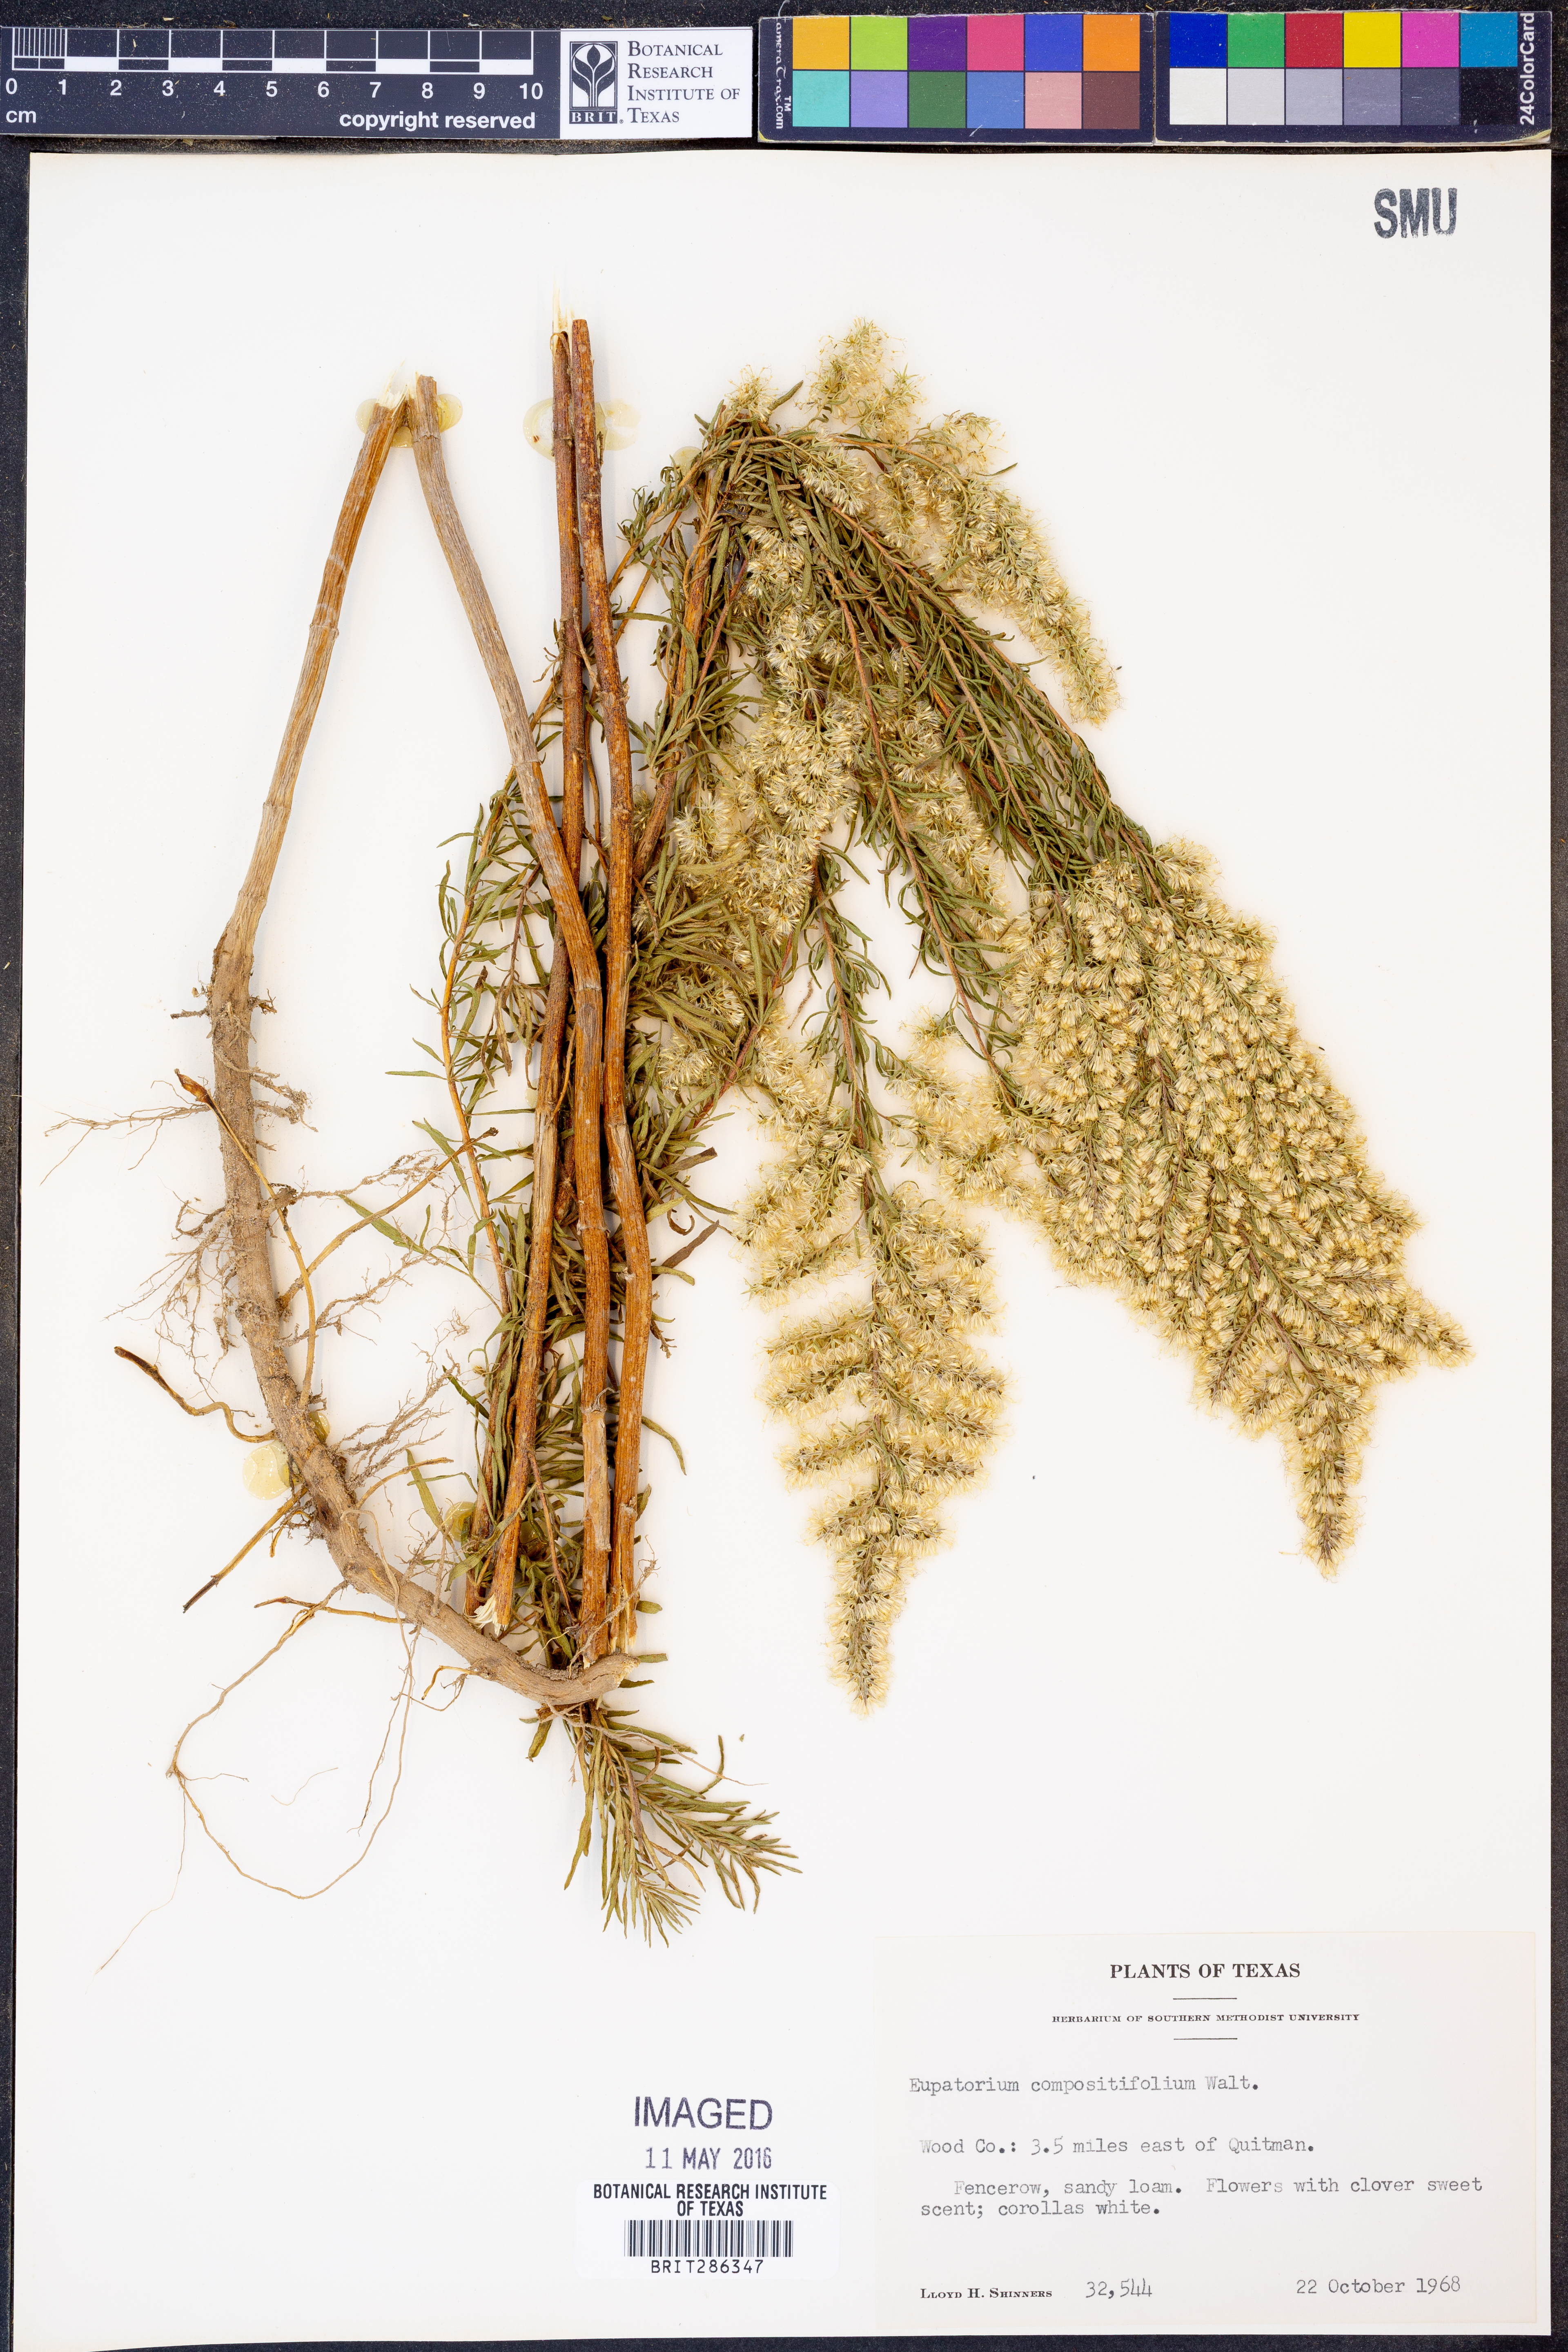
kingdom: Plantae
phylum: Tracheophyta
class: Magnoliopsida
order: Asterales
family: Asteraceae
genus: Eupatorium
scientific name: Eupatorium compositifolium
